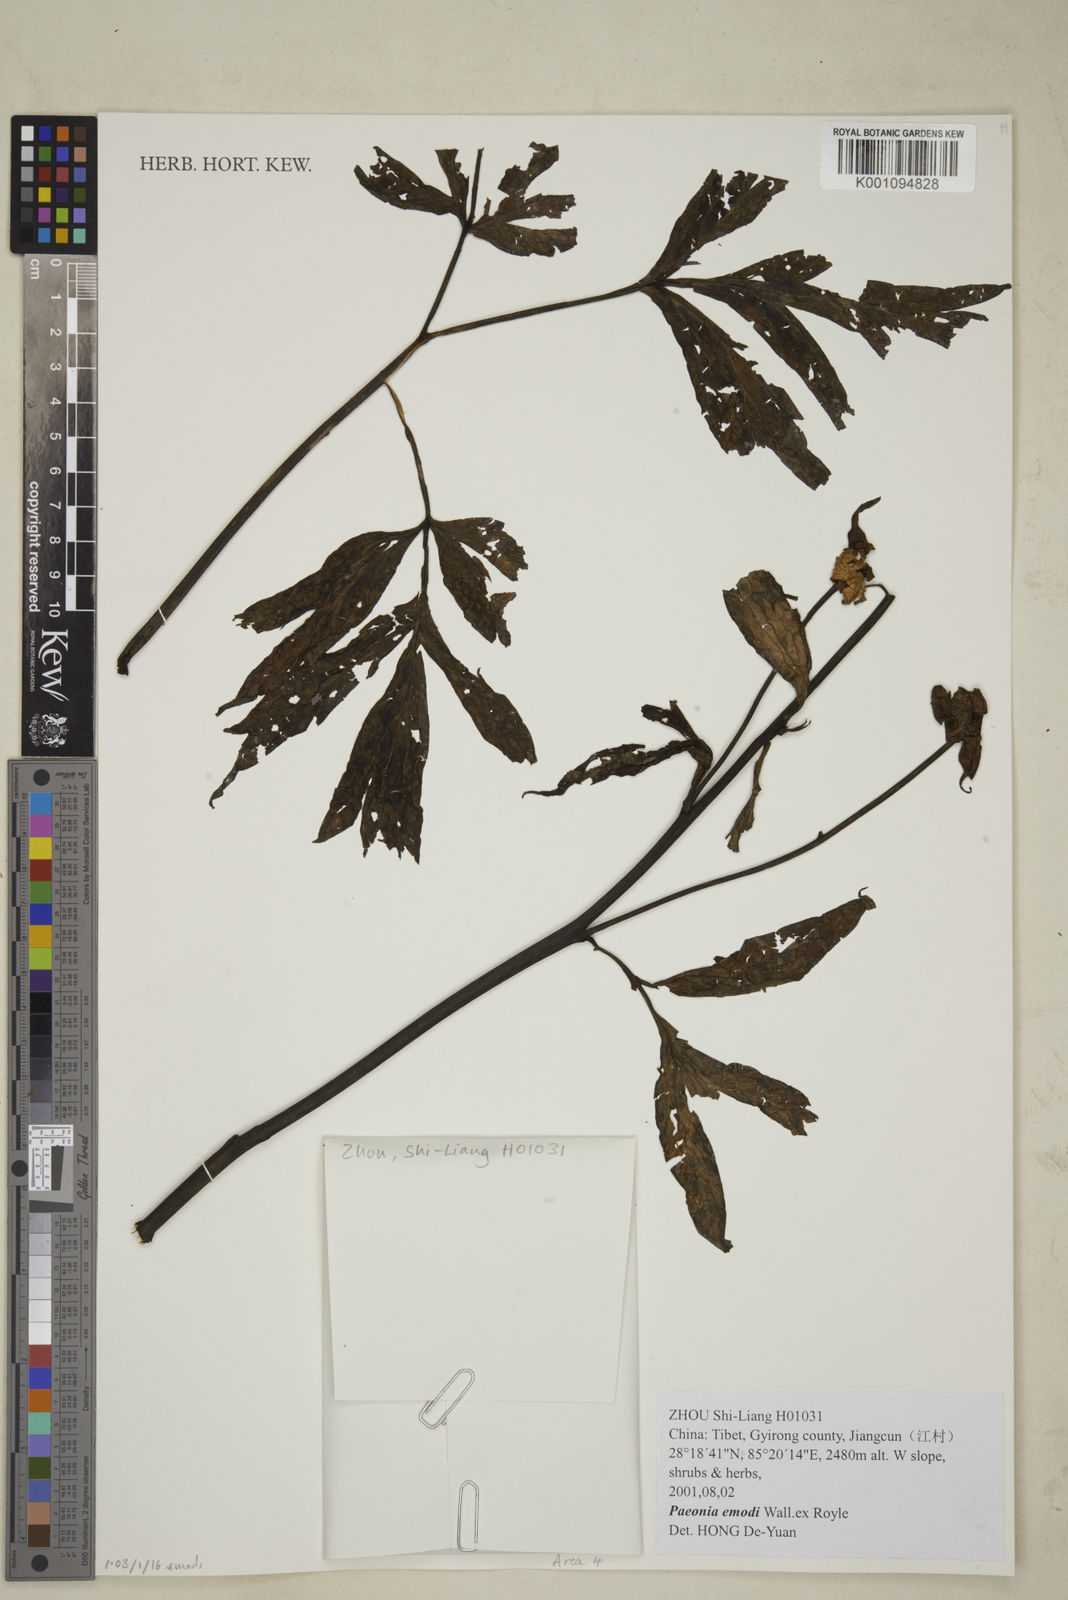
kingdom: Plantae
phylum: Tracheophyta
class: Magnoliopsida
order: Saxifragales
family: Paeoniaceae
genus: Paeonia
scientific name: Paeonia emodi
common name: Himalayan peony
